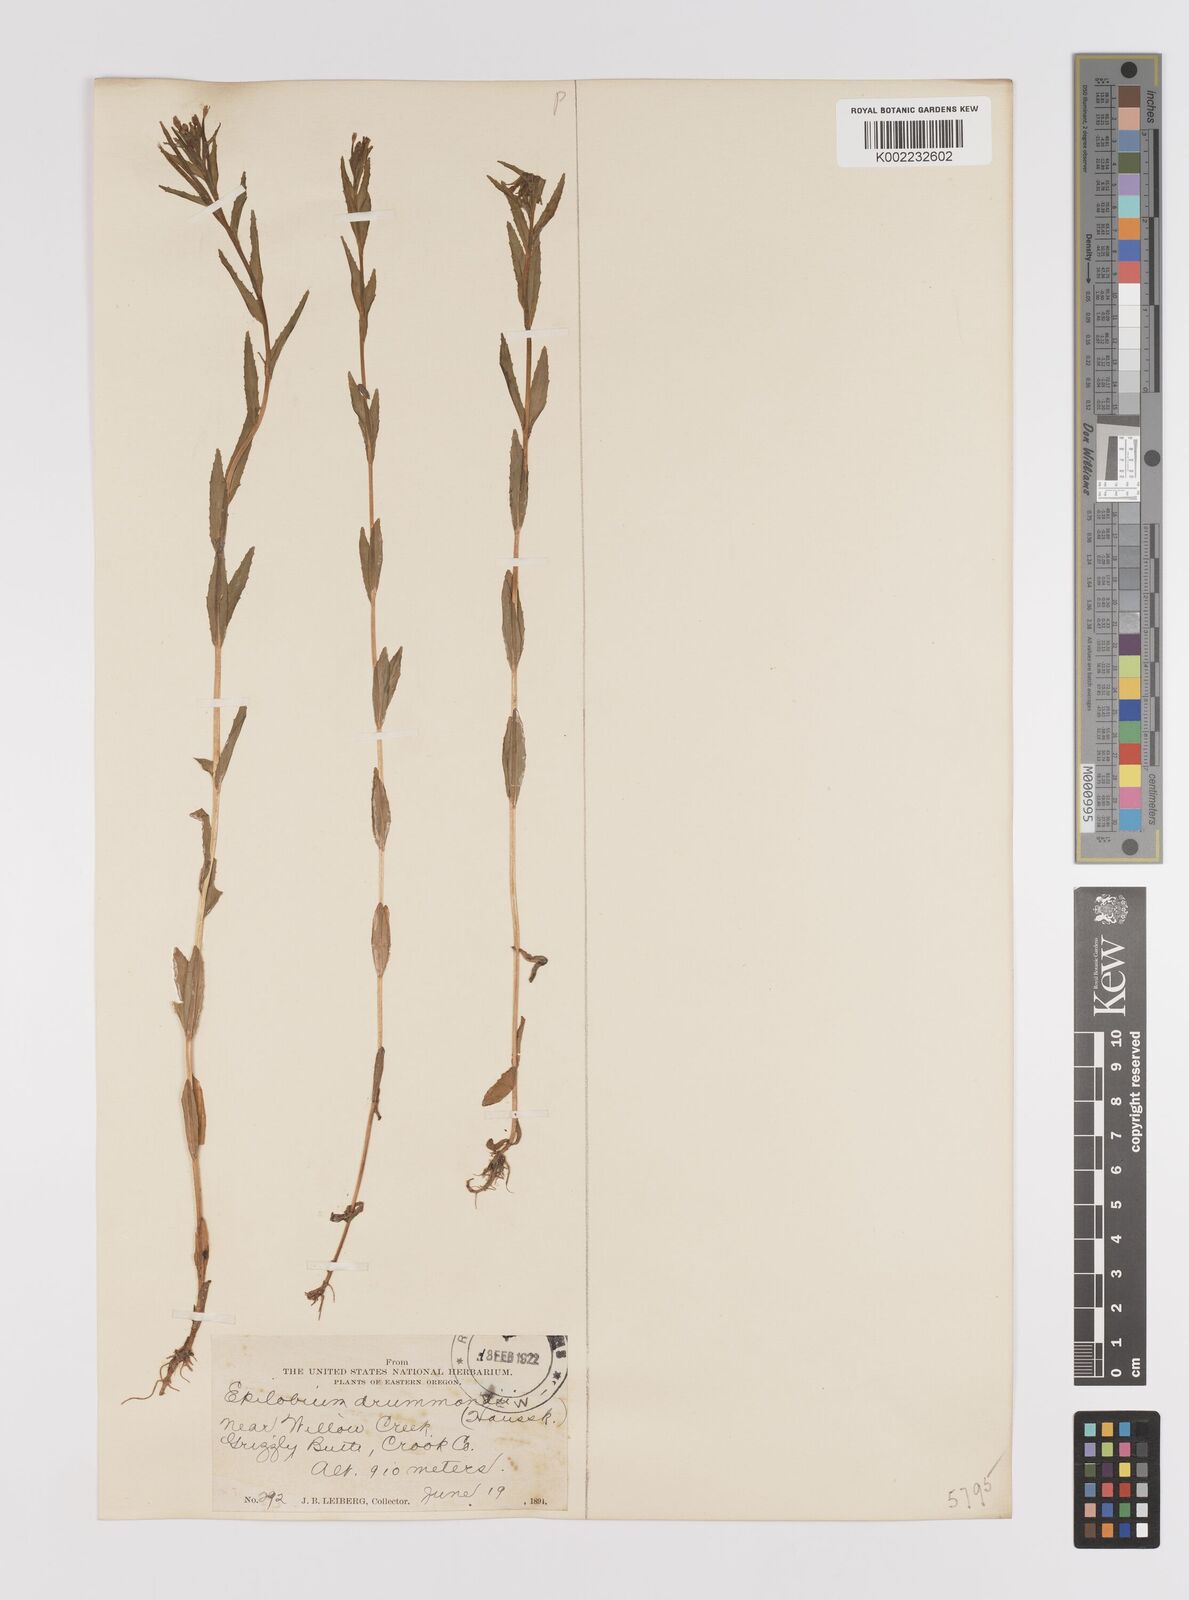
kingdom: Plantae
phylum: Tracheophyta
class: Magnoliopsida
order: Myrtales
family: Onagraceae
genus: Epilobium
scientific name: Epilobium hallianum
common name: Hall's willowherb
